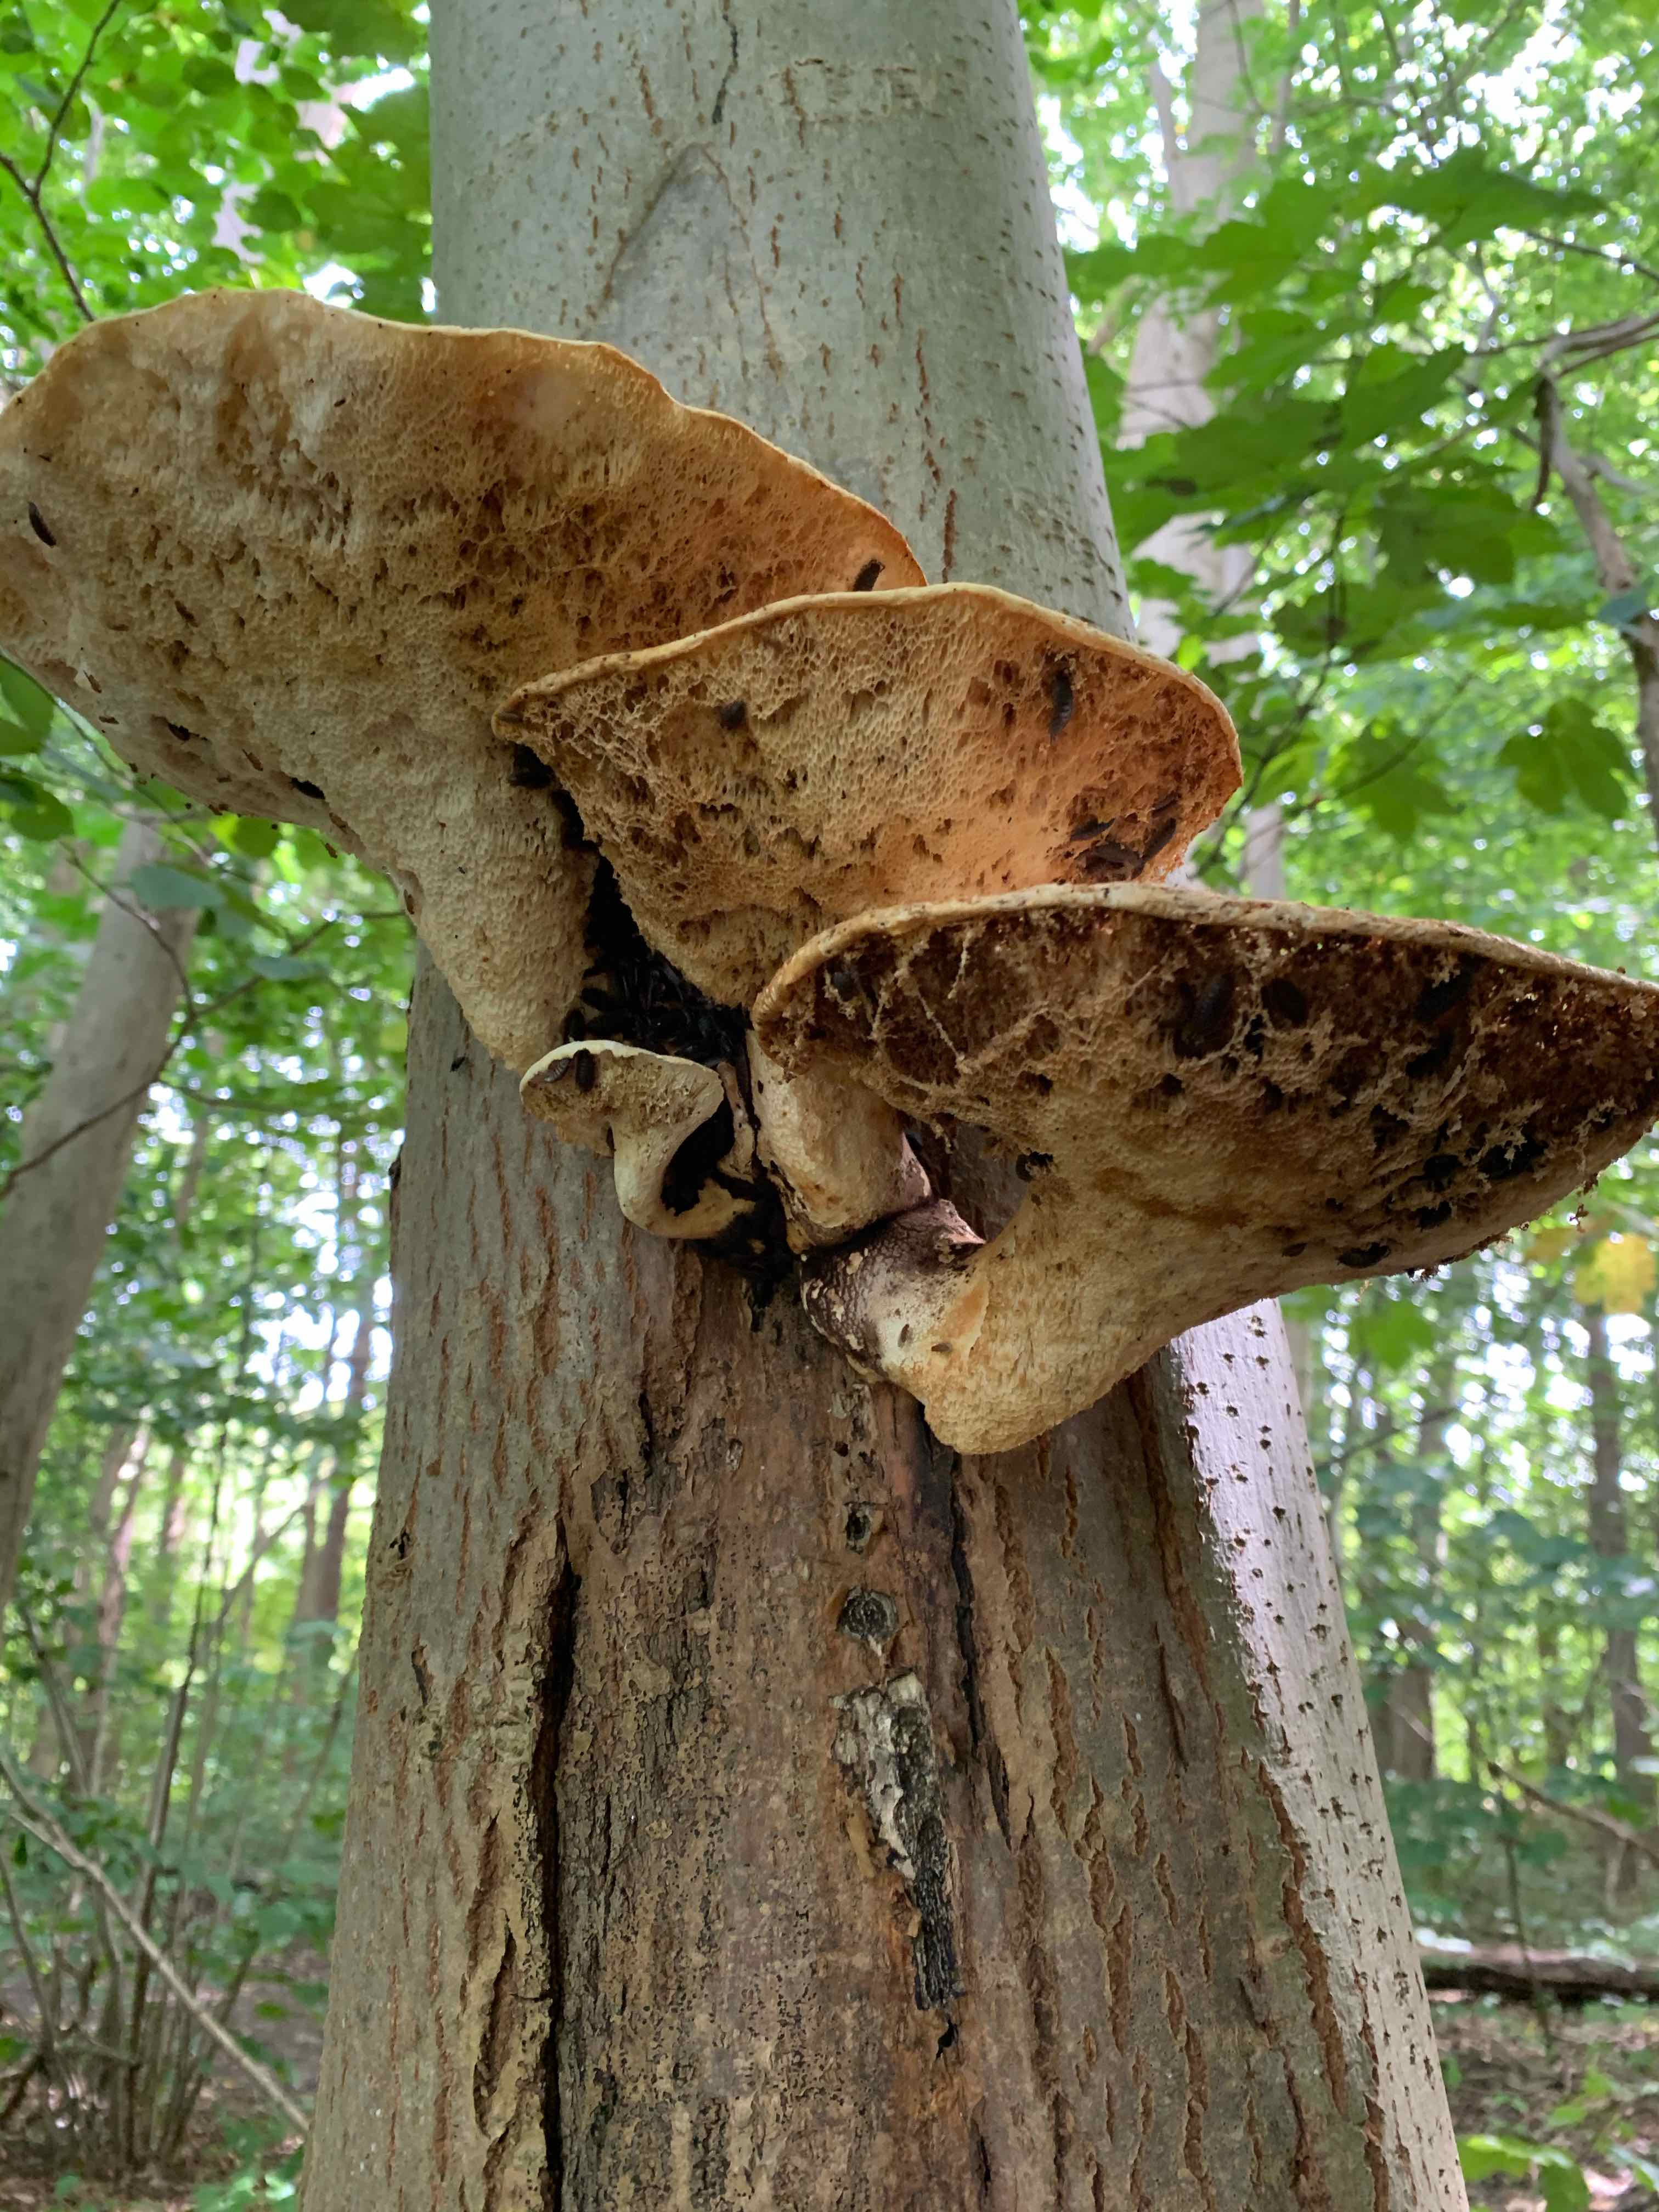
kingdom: Fungi
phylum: Basidiomycota
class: Agaricomycetes
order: Polyporales
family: Polyporaceae
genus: Cerioporus
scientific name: Cerioporus squamosus
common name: skællet stilkporesvamp
